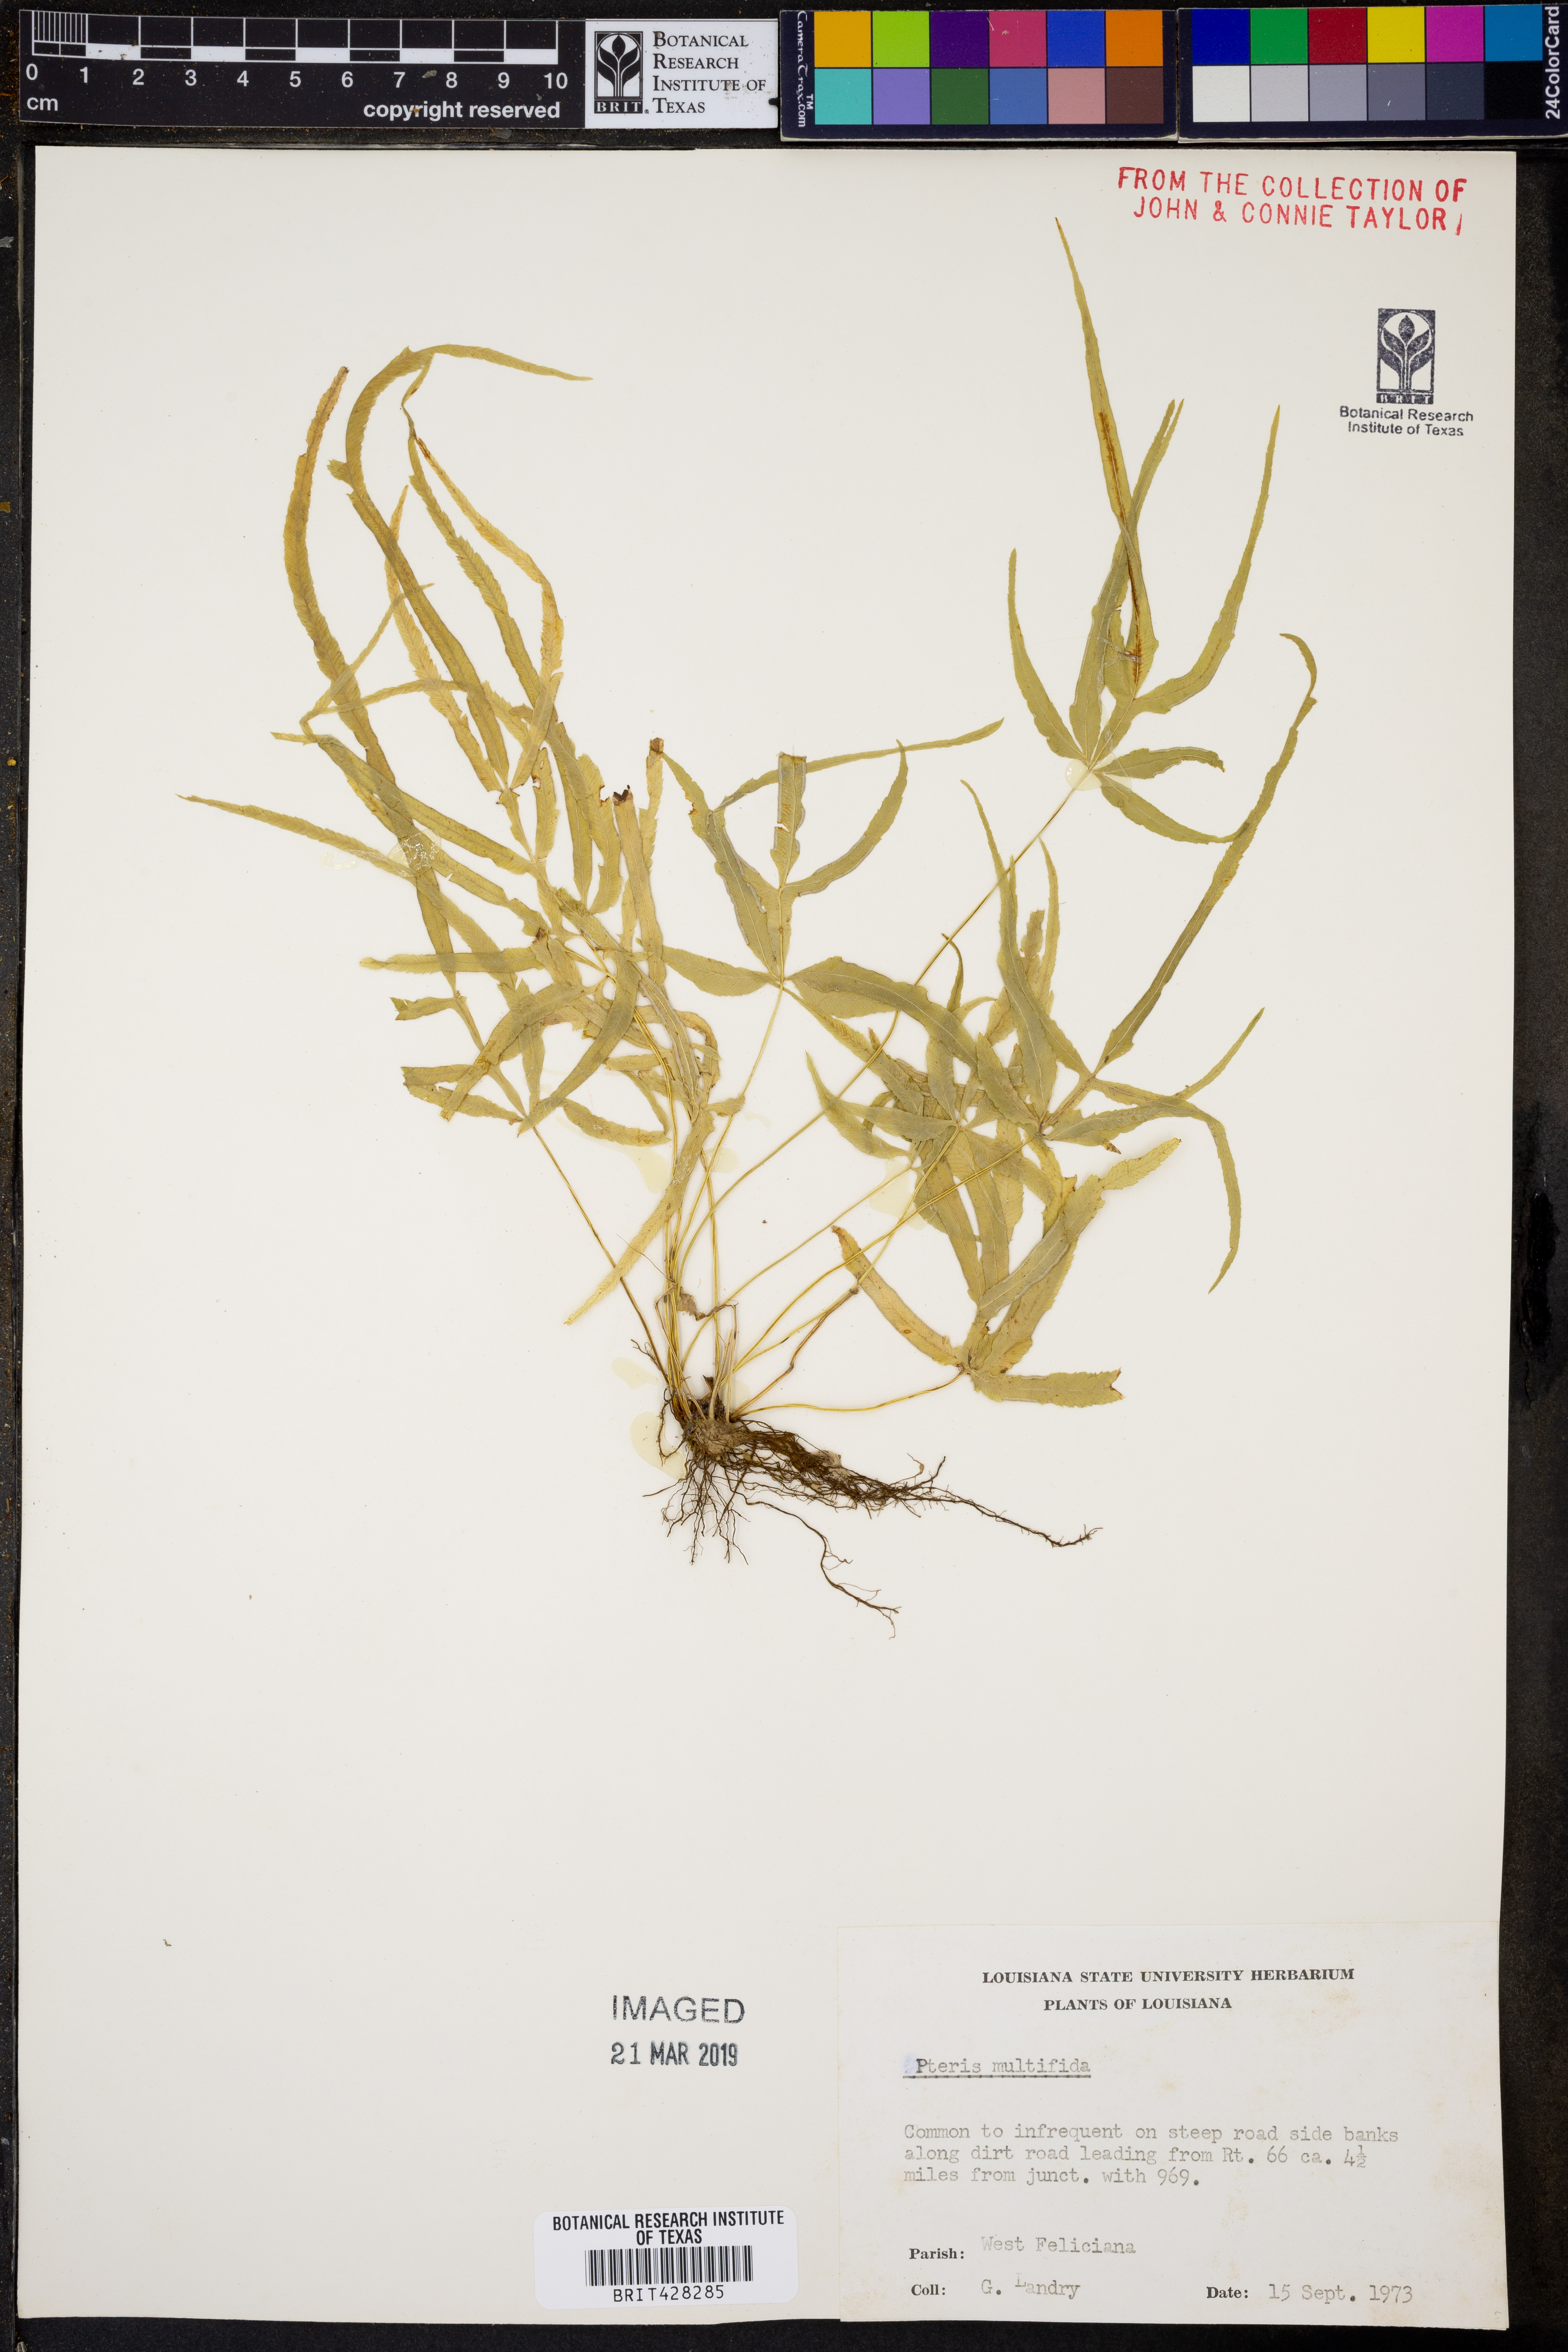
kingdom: Plantae
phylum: Tracheophyta
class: Polypodiopsida
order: Polypodiales
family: Pteridaceae
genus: Pteris
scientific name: Pteris multifida
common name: Spider brake
